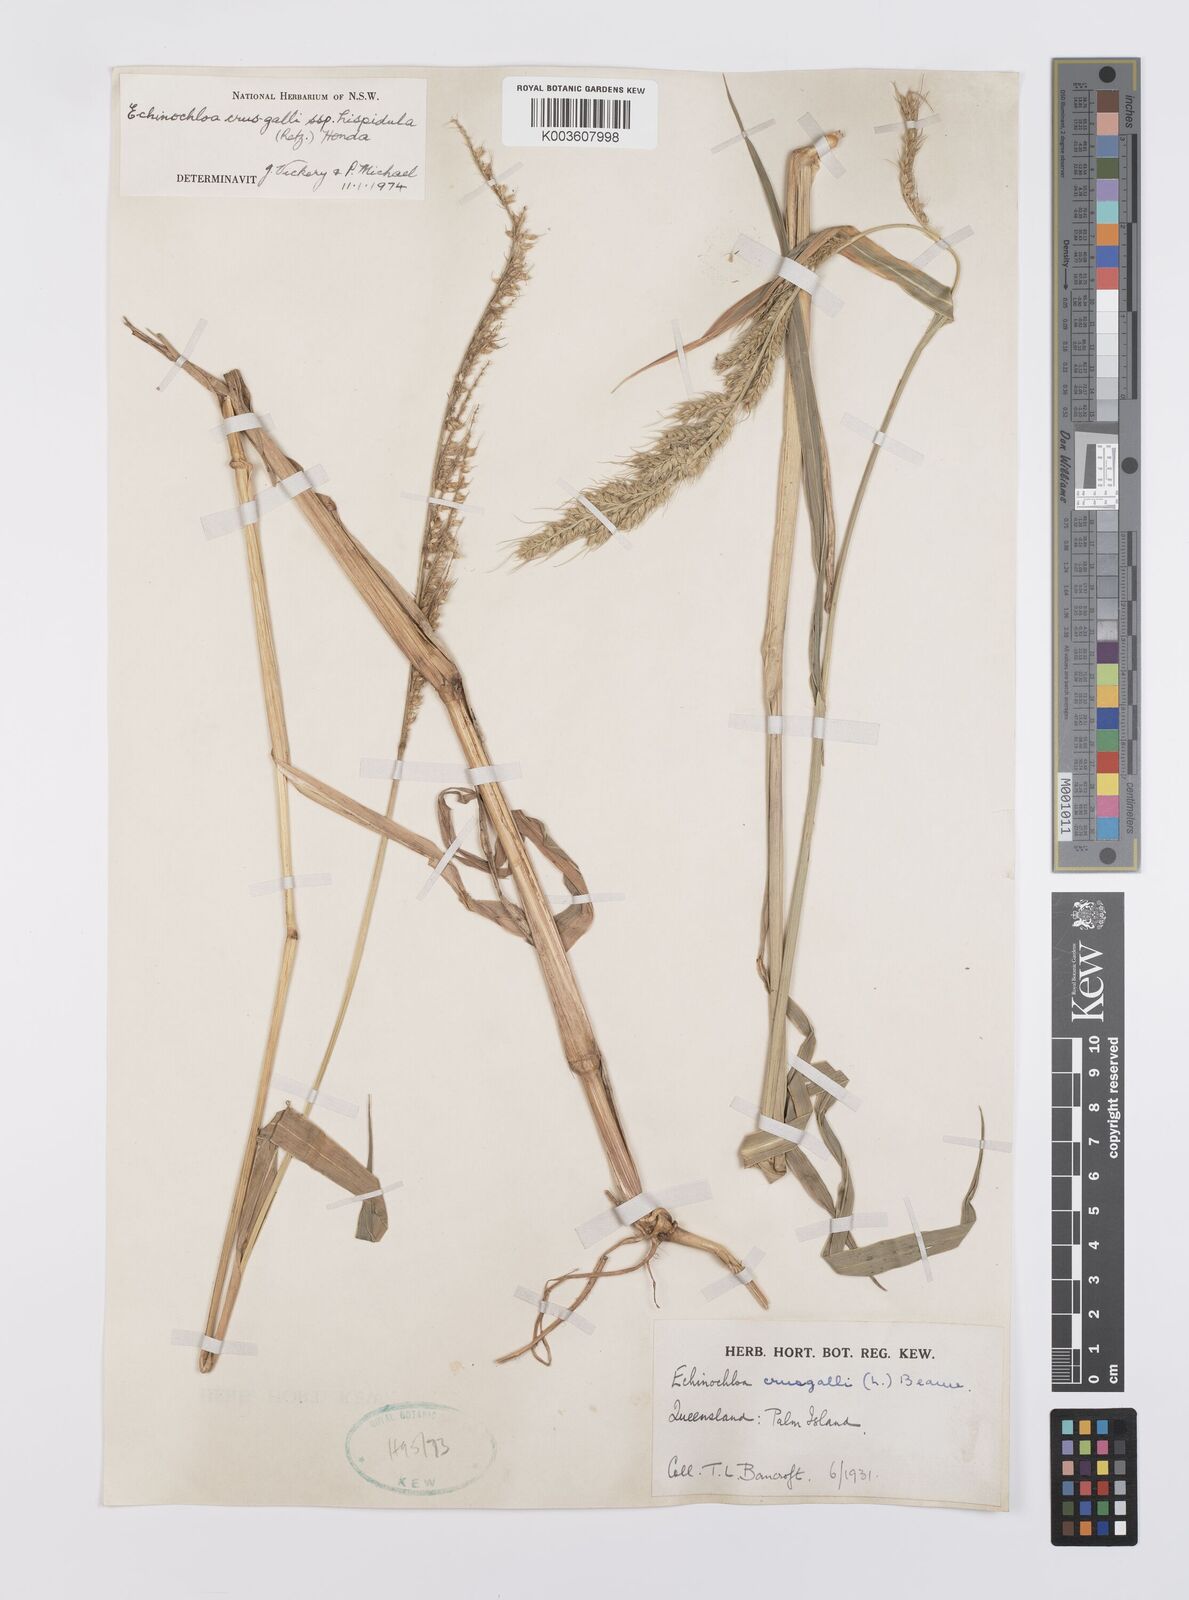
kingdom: Plantae
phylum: Tracheophyta
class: Liliopsida
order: Poales
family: Poaceae
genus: Echinochloa
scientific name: Echinochloa crus-galli
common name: Cockspur
